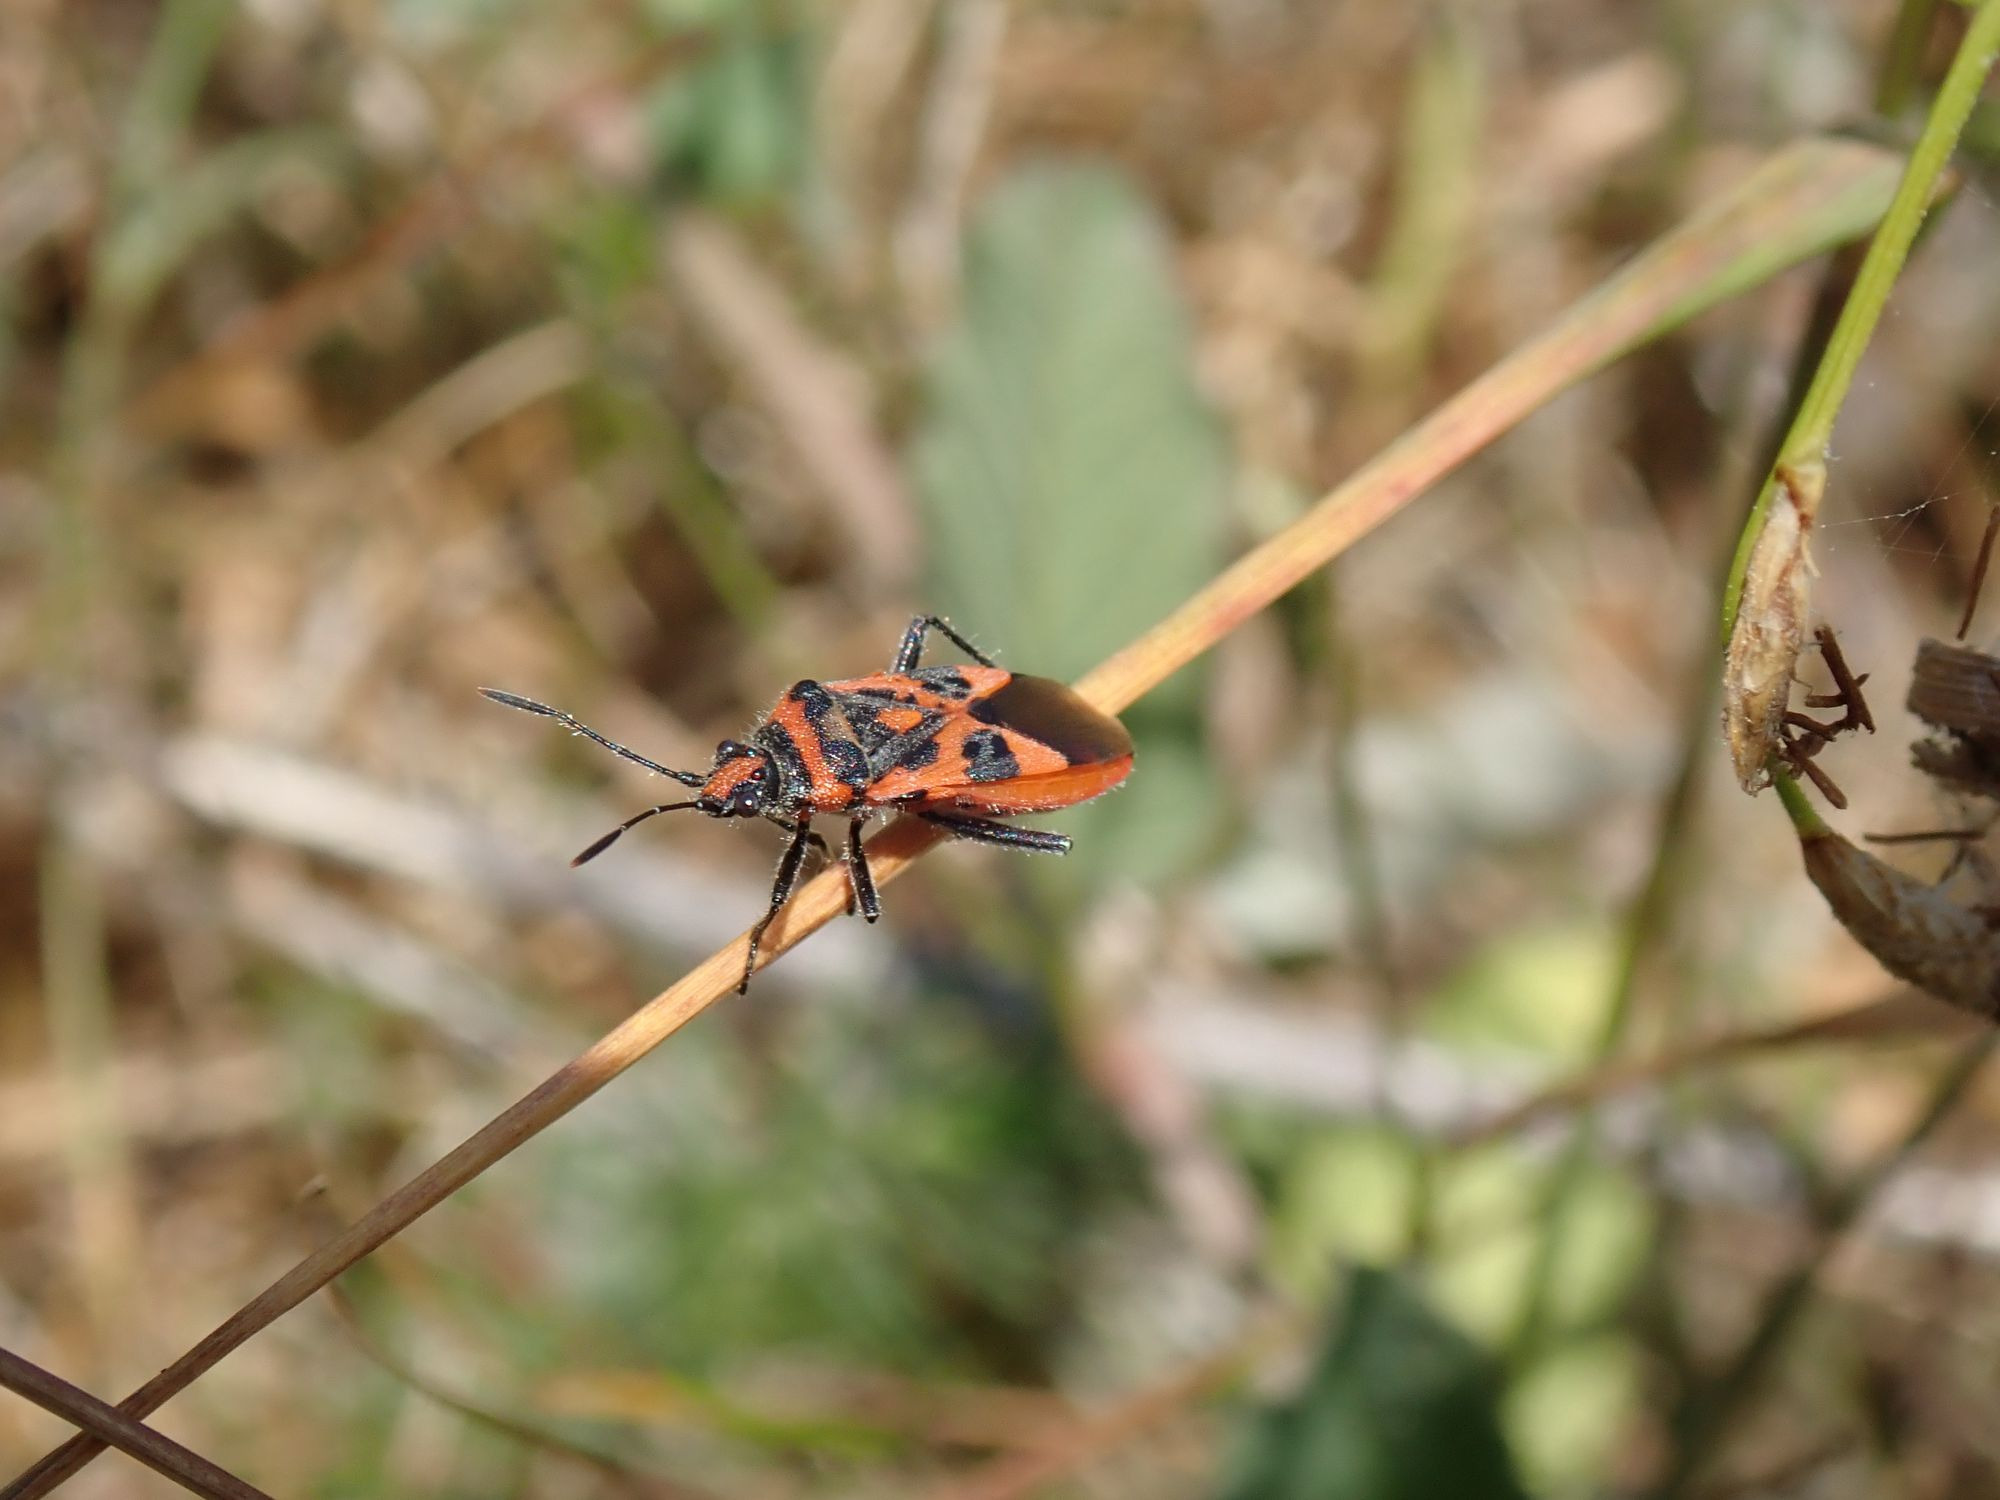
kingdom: Animalia
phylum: Arthropoda
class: Insecta
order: Hemiptera
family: Rhopalidae
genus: Corizus
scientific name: Corizus hyoscyami
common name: Rød kanttæge
